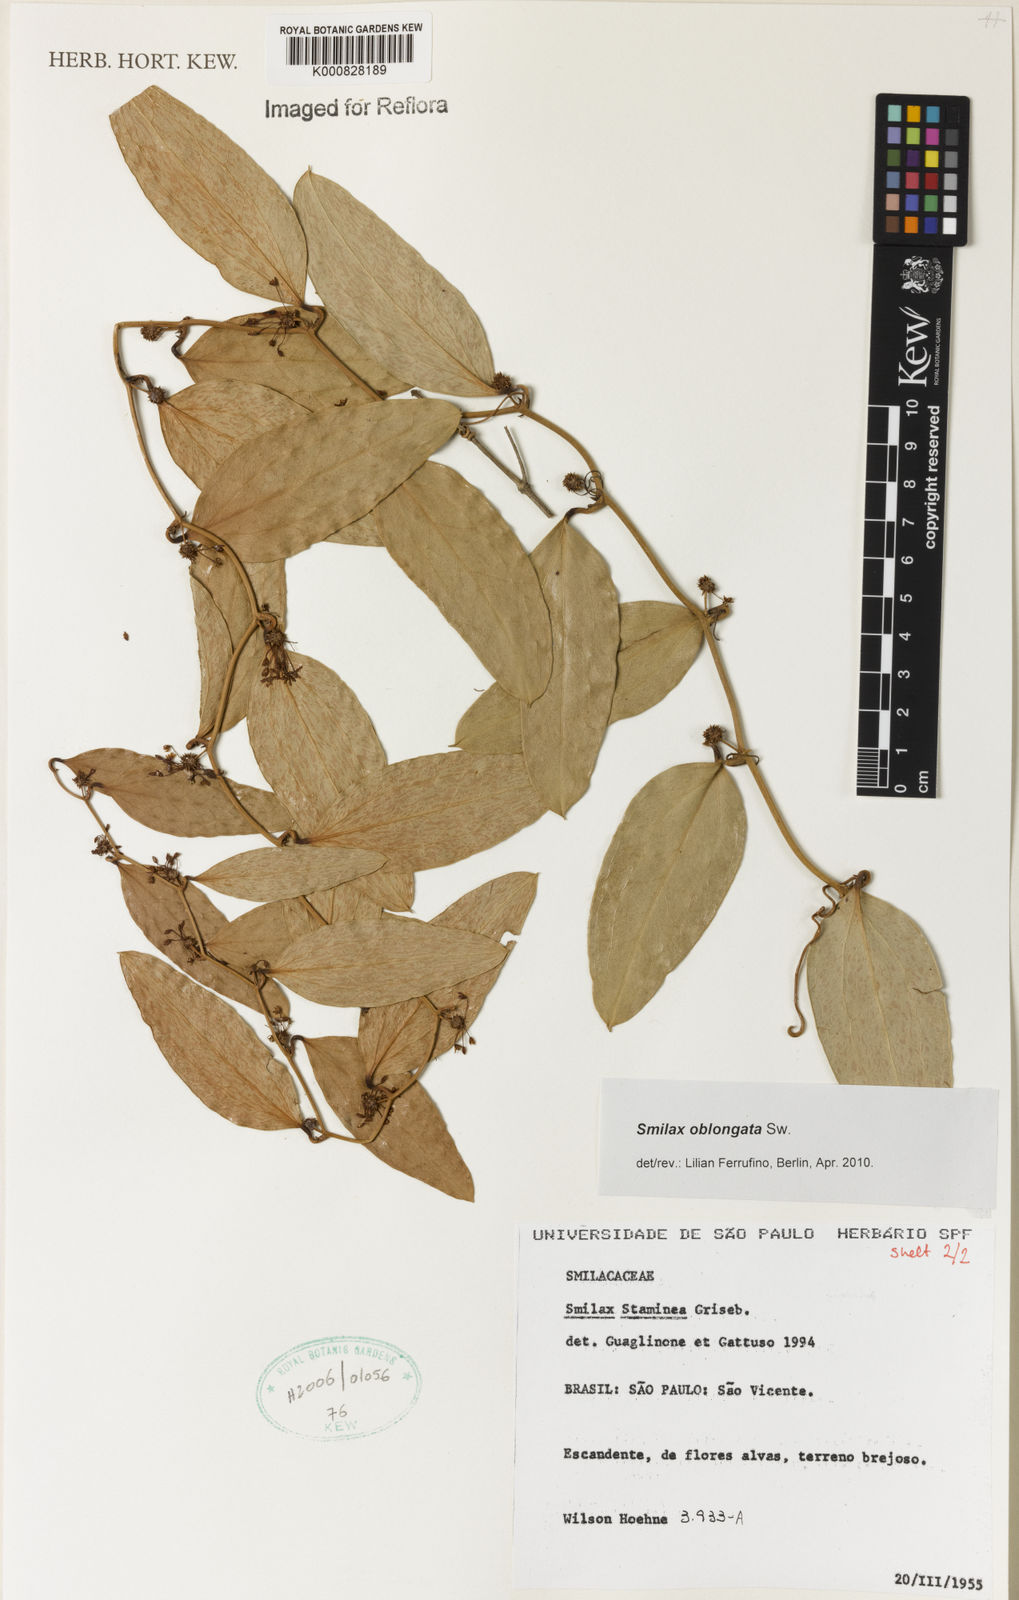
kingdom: Plantae
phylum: Tracheophyta
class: Liliopsida
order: Liliales
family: Smilacaceae
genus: Smilax
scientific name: Smilax oblongata
